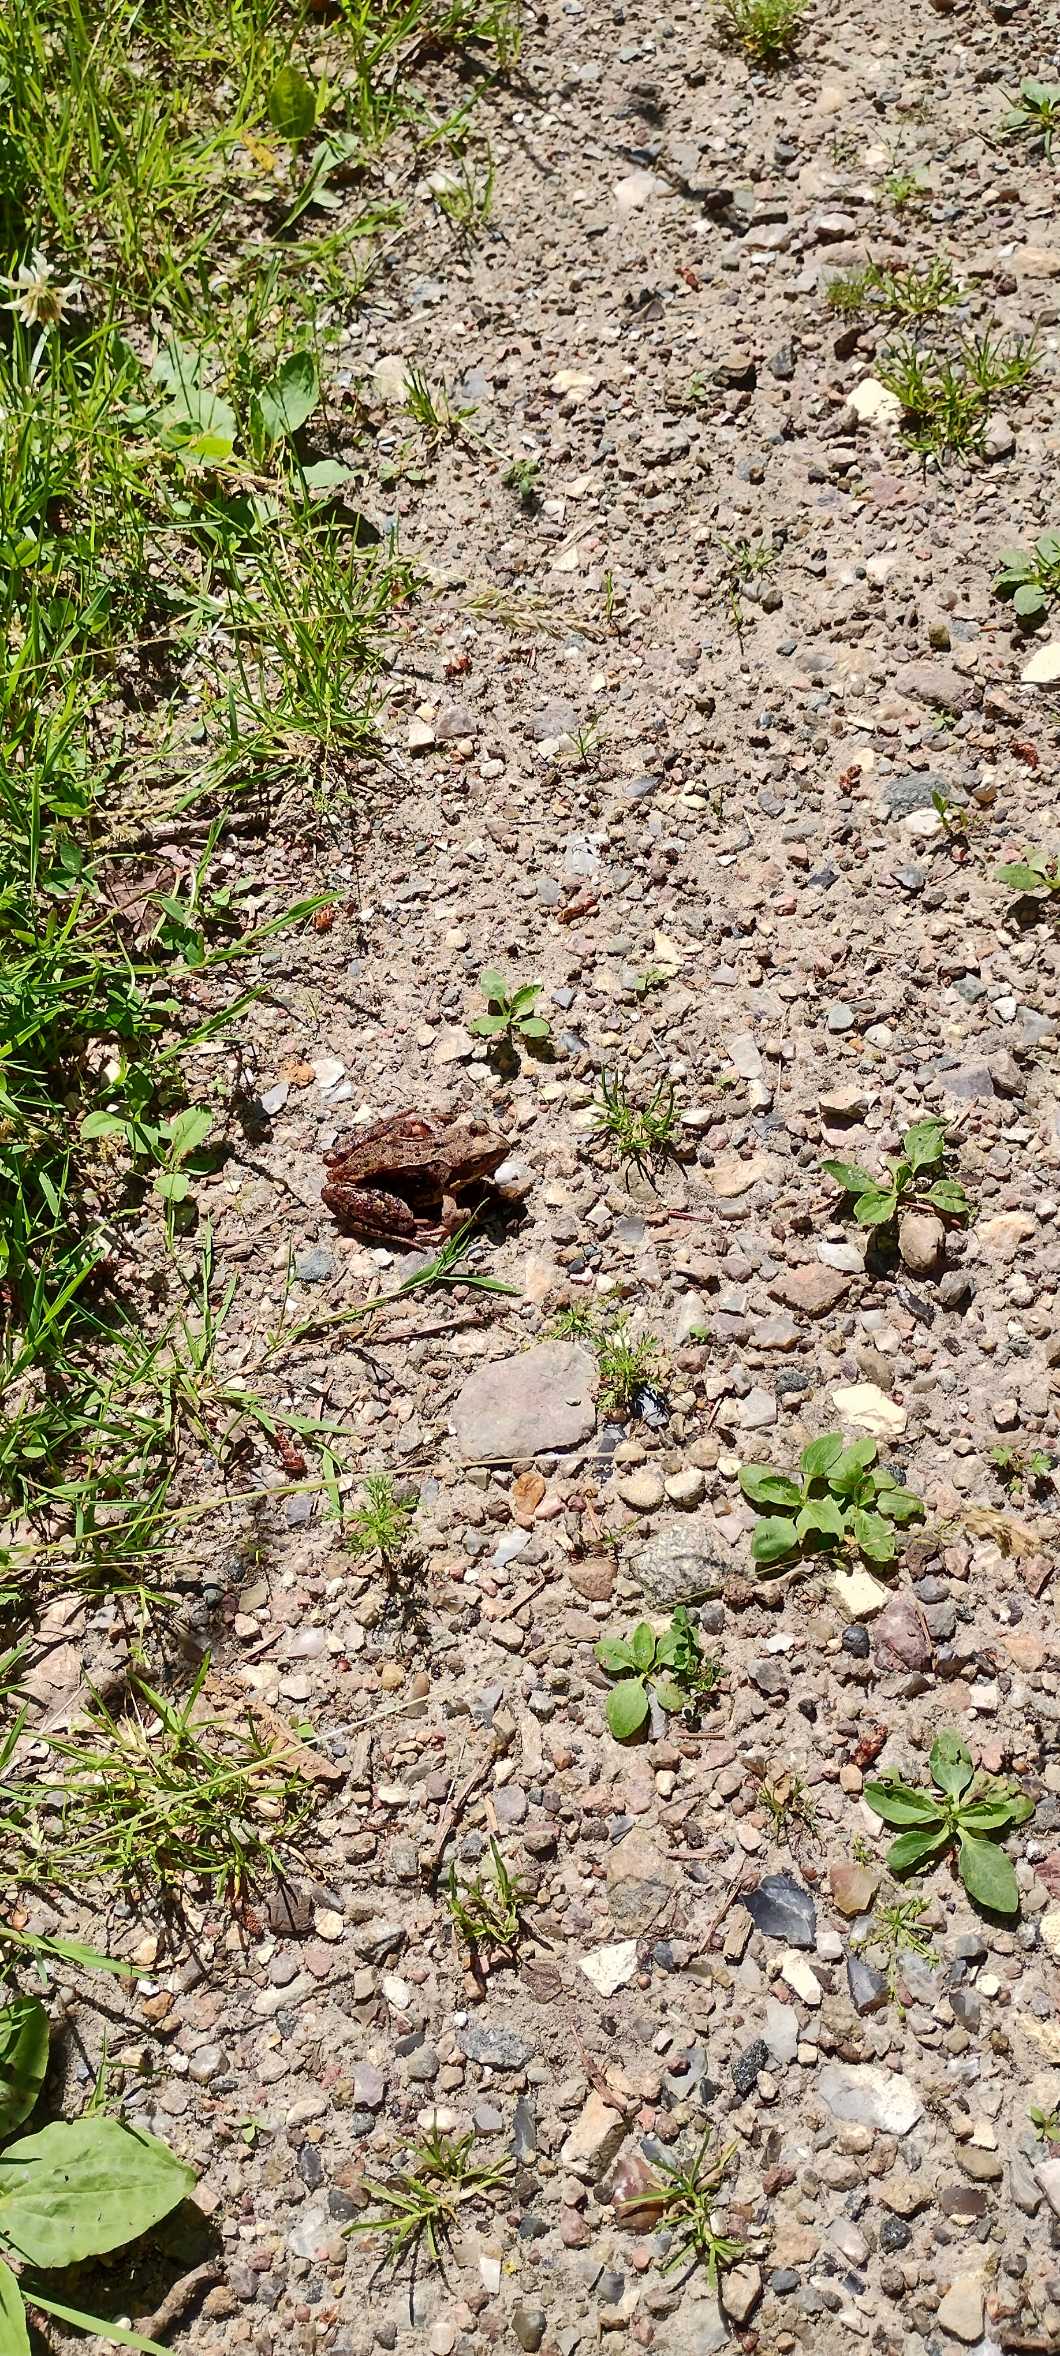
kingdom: Animalia
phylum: Chordata
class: Amphibia
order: Anura
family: Ranidae
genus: Rana
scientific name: Rana temporaria
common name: Butsnudet frø
